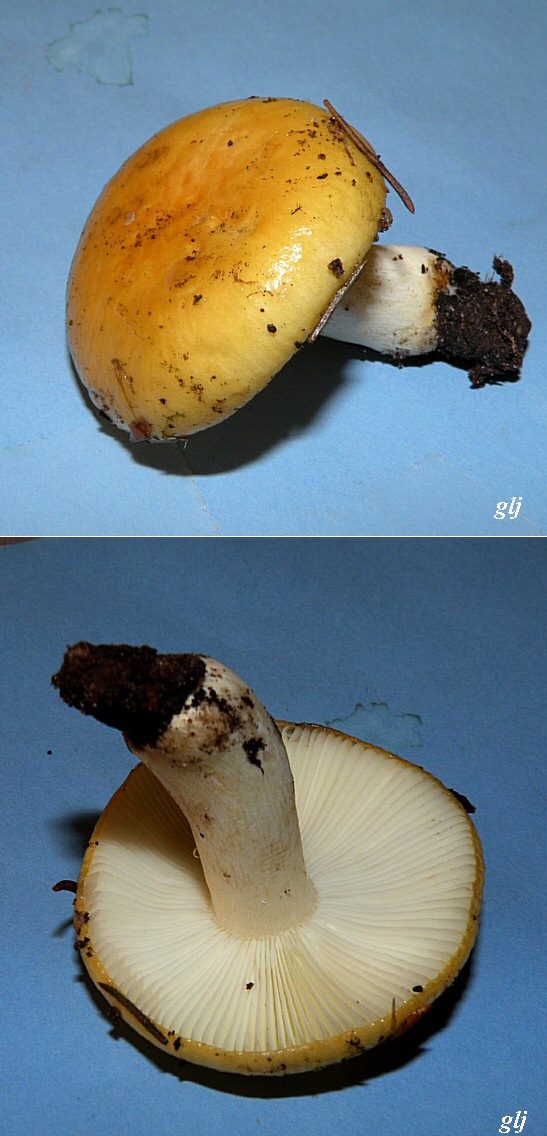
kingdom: Fungi
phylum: Basidiomycota
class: Agaricomycetes
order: Russulales
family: Russulaceae
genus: Russula
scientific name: Russula ochroleuca
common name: okkergul skørhat
